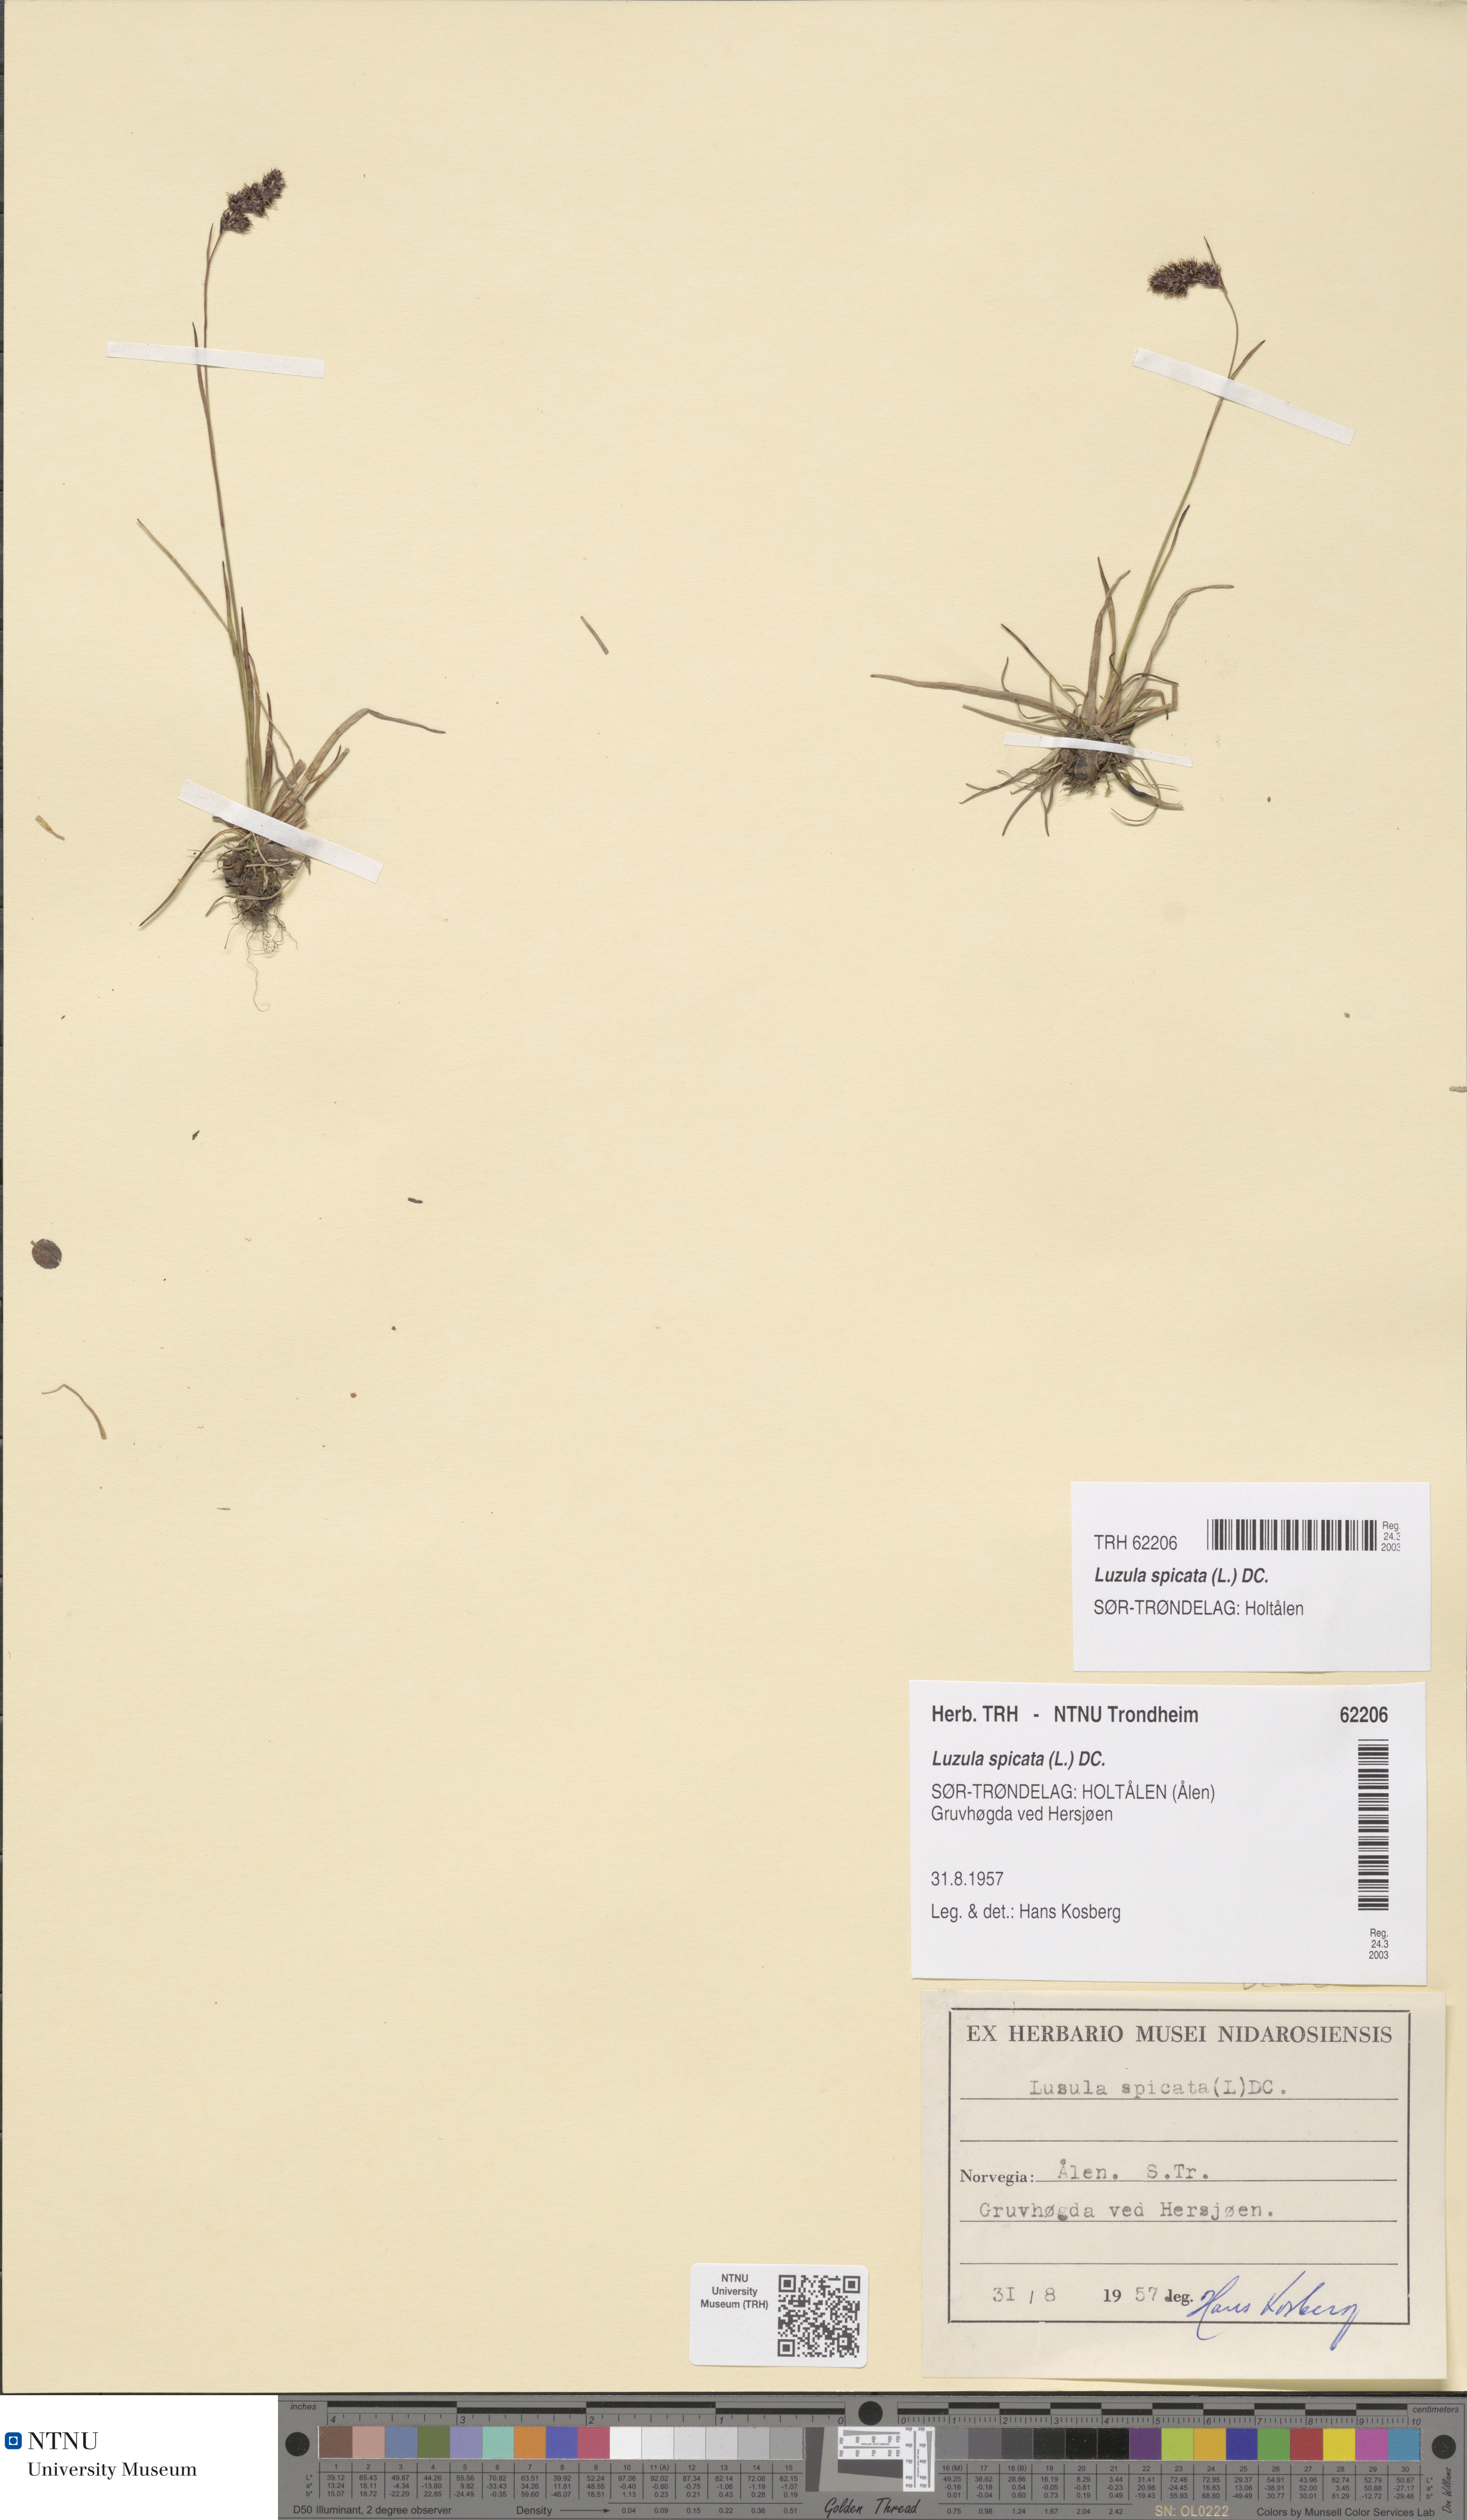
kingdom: Plantae
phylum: Tracheophyta
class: Liliopsida
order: Poales
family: Juncaceae
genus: Luzula
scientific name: Luzula spicata
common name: Spiked wood-rush
